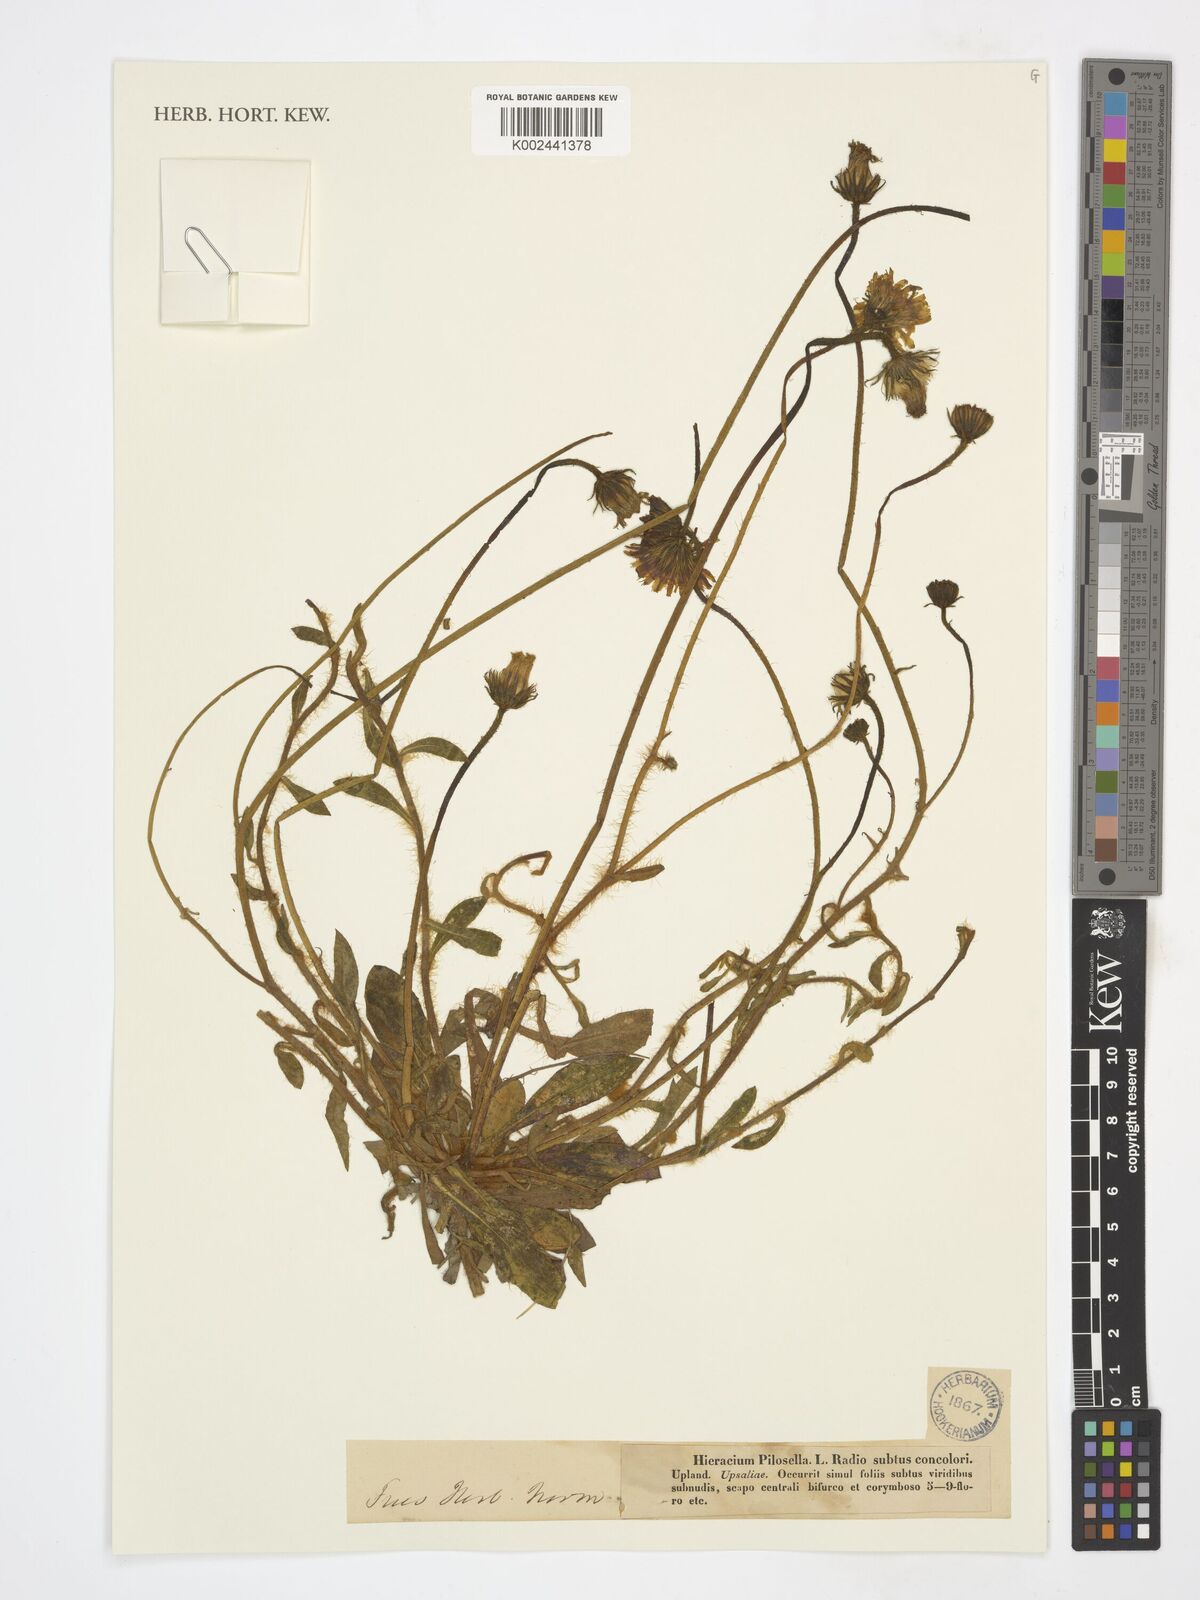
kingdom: Plantae
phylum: Tracheophyta
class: Magnoliopsida
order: Asterales
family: Asteraceae
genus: Pilosella
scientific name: Pilosella officinarum
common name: Mouse-ear hawkweed
